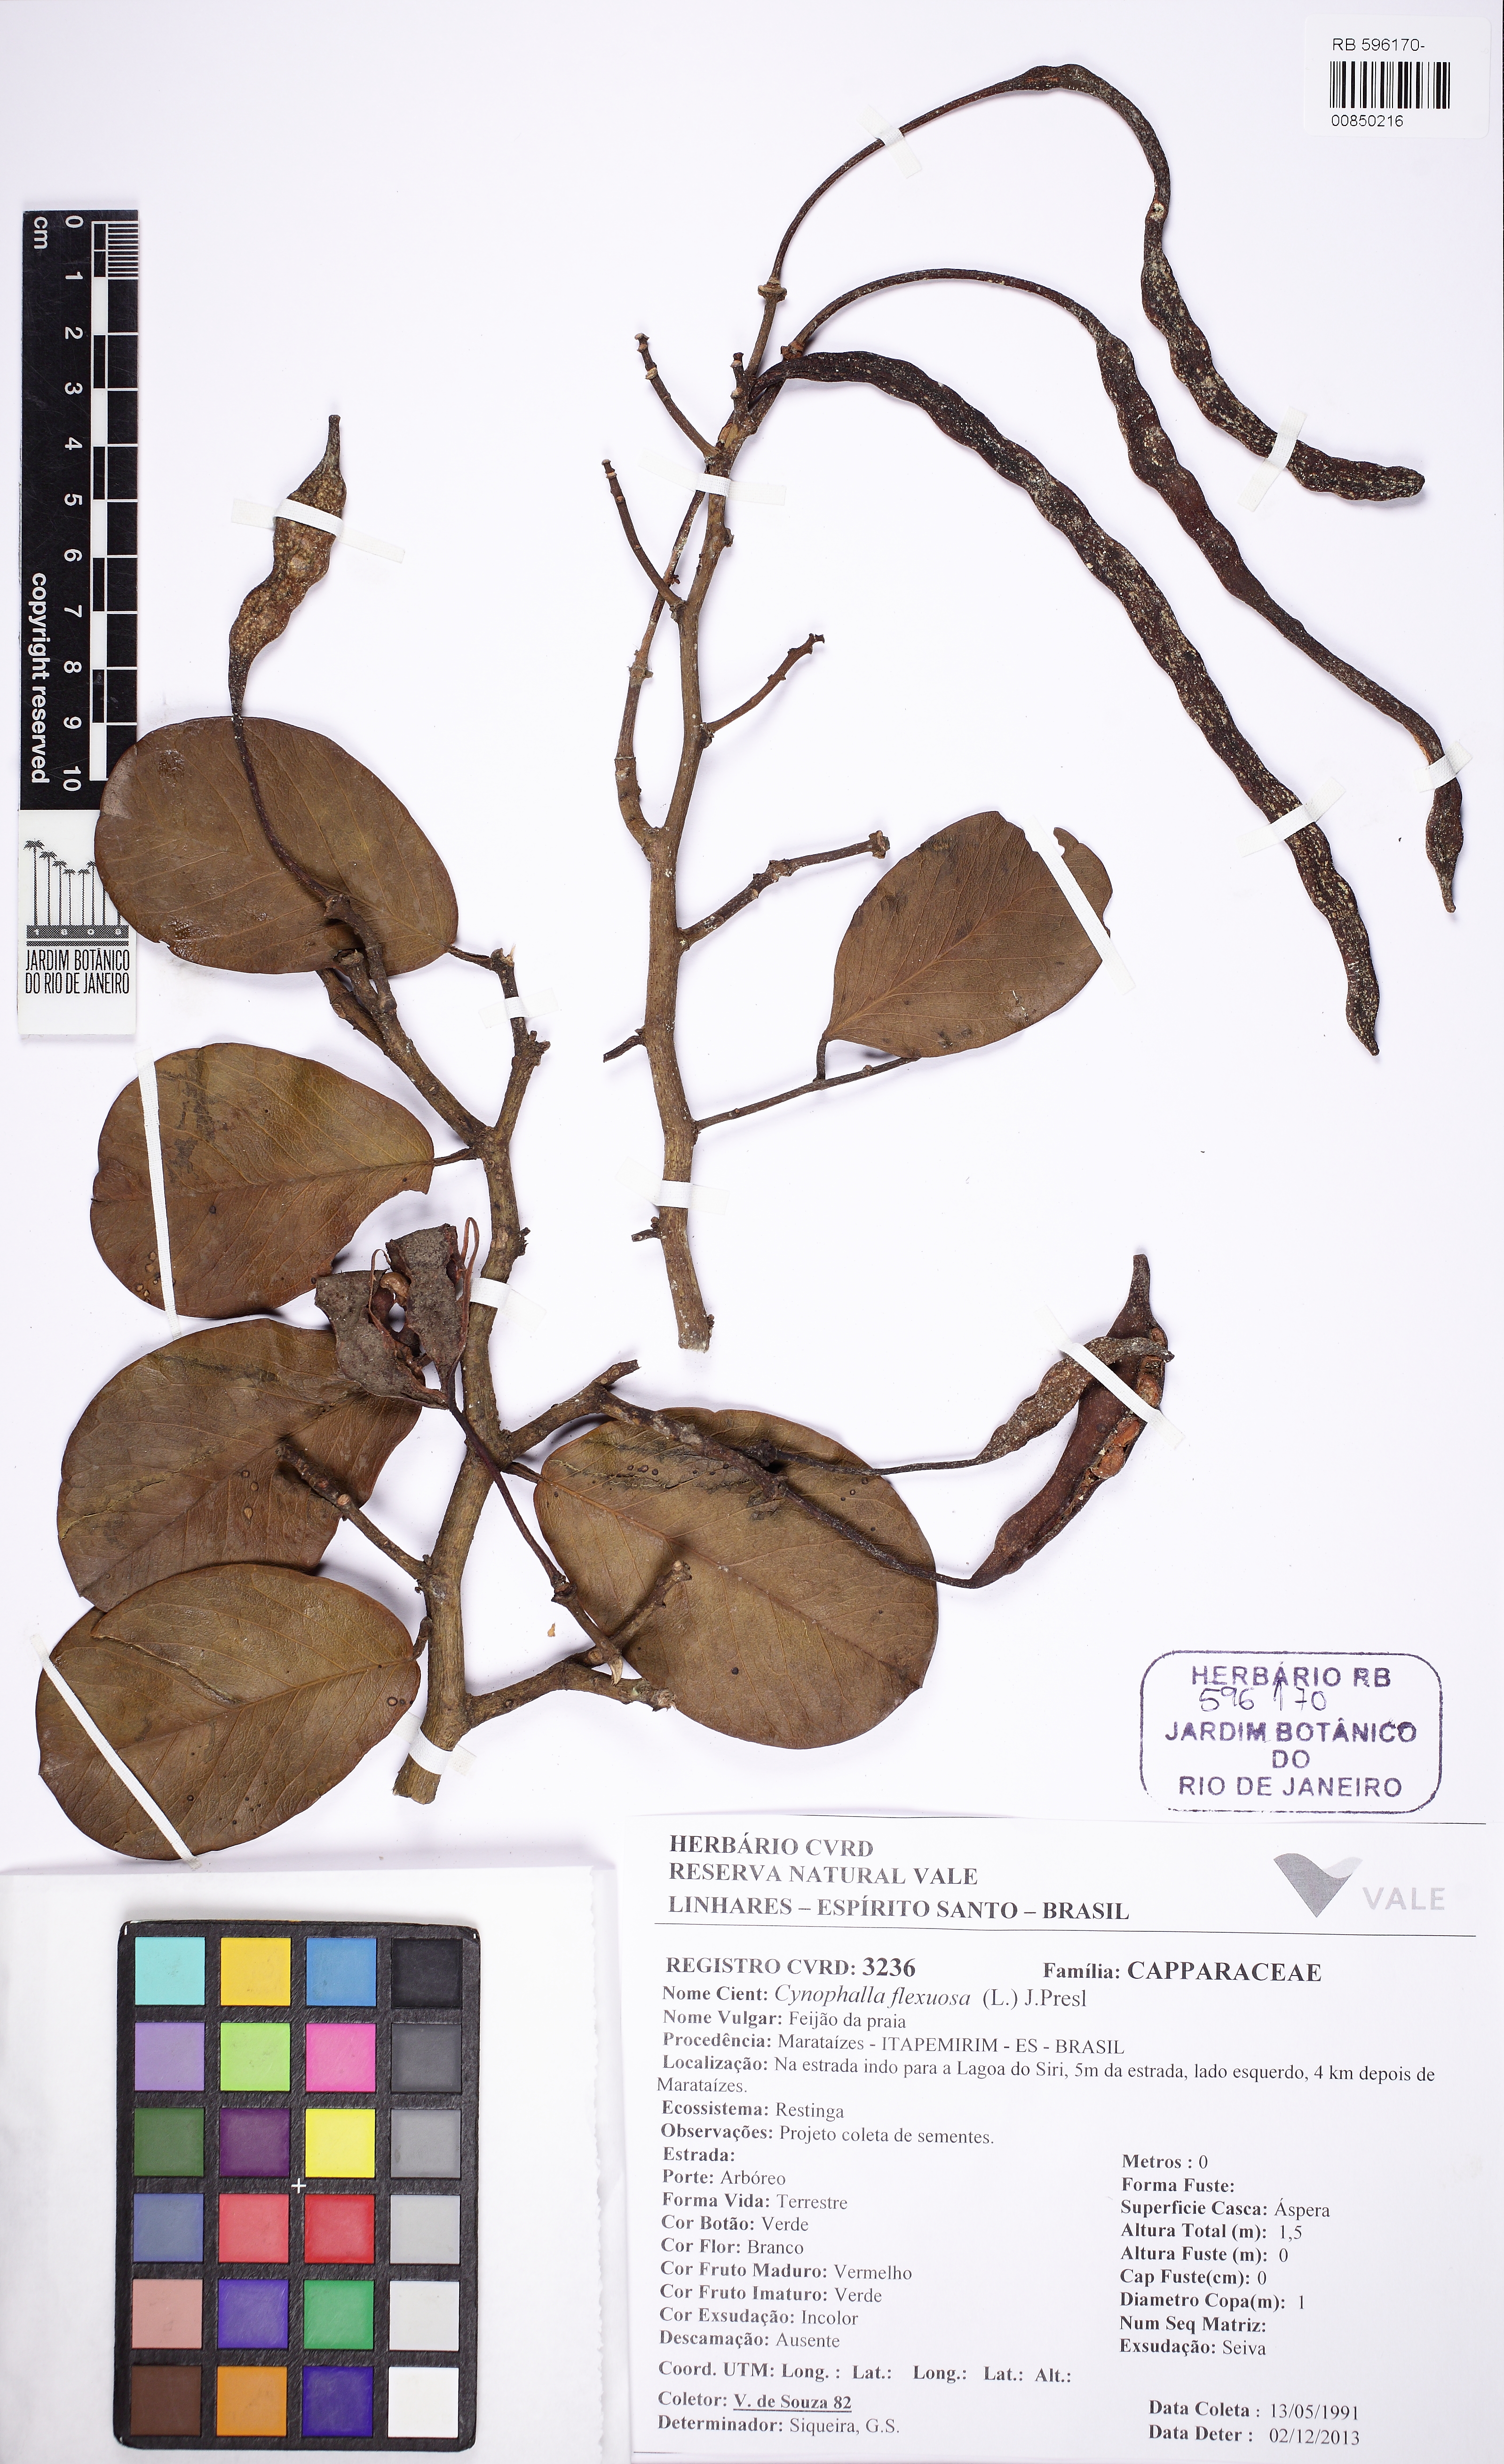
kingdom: Plantae
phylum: Tracheophyta
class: Magnoliopsida
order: Brassicales
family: Capparaceae
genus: Cynophalla
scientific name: Cynophalla flexuosa
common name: Capertree
